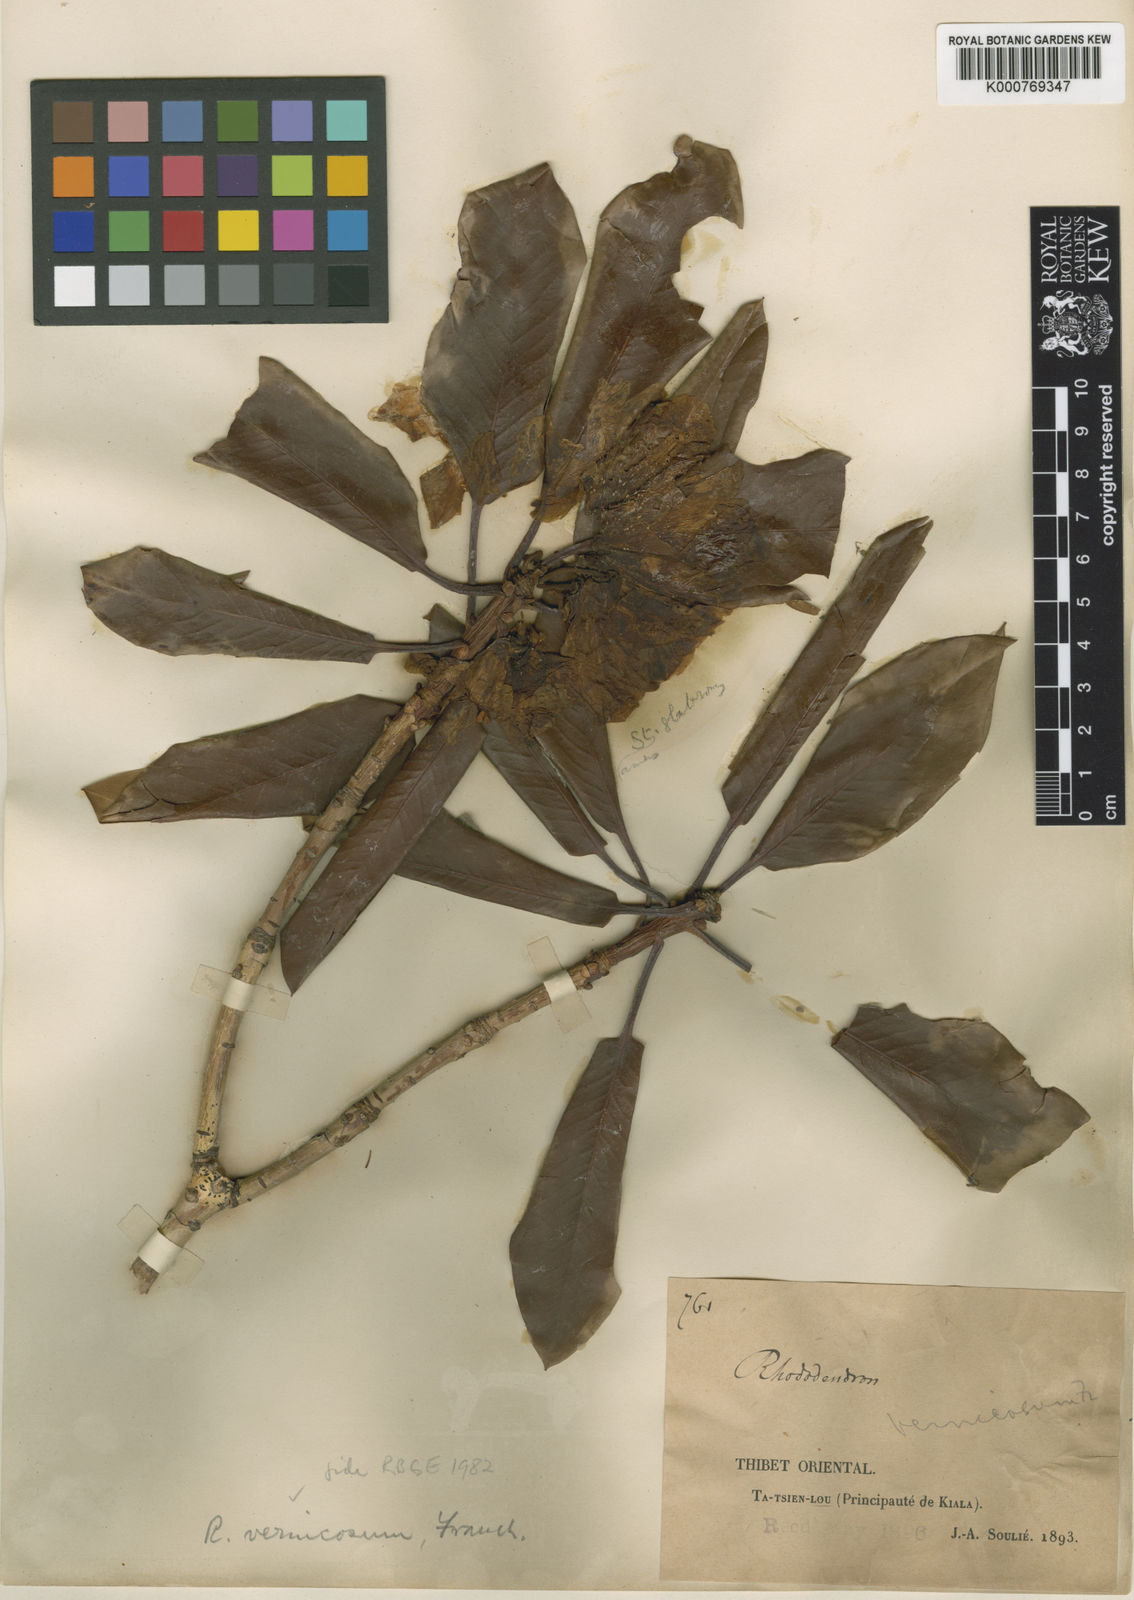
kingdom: Plantae
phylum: Tracheophyta
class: Magnoliopsida
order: Ericales
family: Ericaceae
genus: Rhododendron
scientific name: Rhododendron vernicosum
